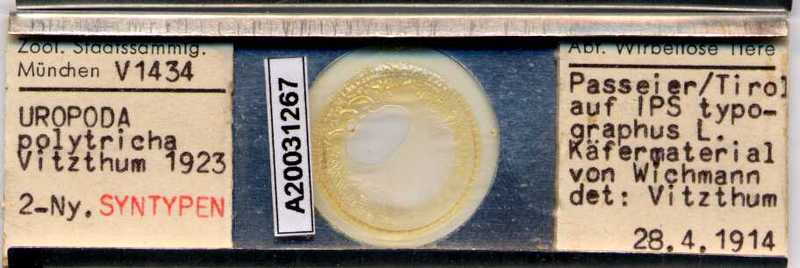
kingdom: Animalia
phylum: Arthropoda
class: Arachnida
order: Mesostigmata
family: Trematuridae
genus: Trichouropoda
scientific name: Trichouropoda polytricha
